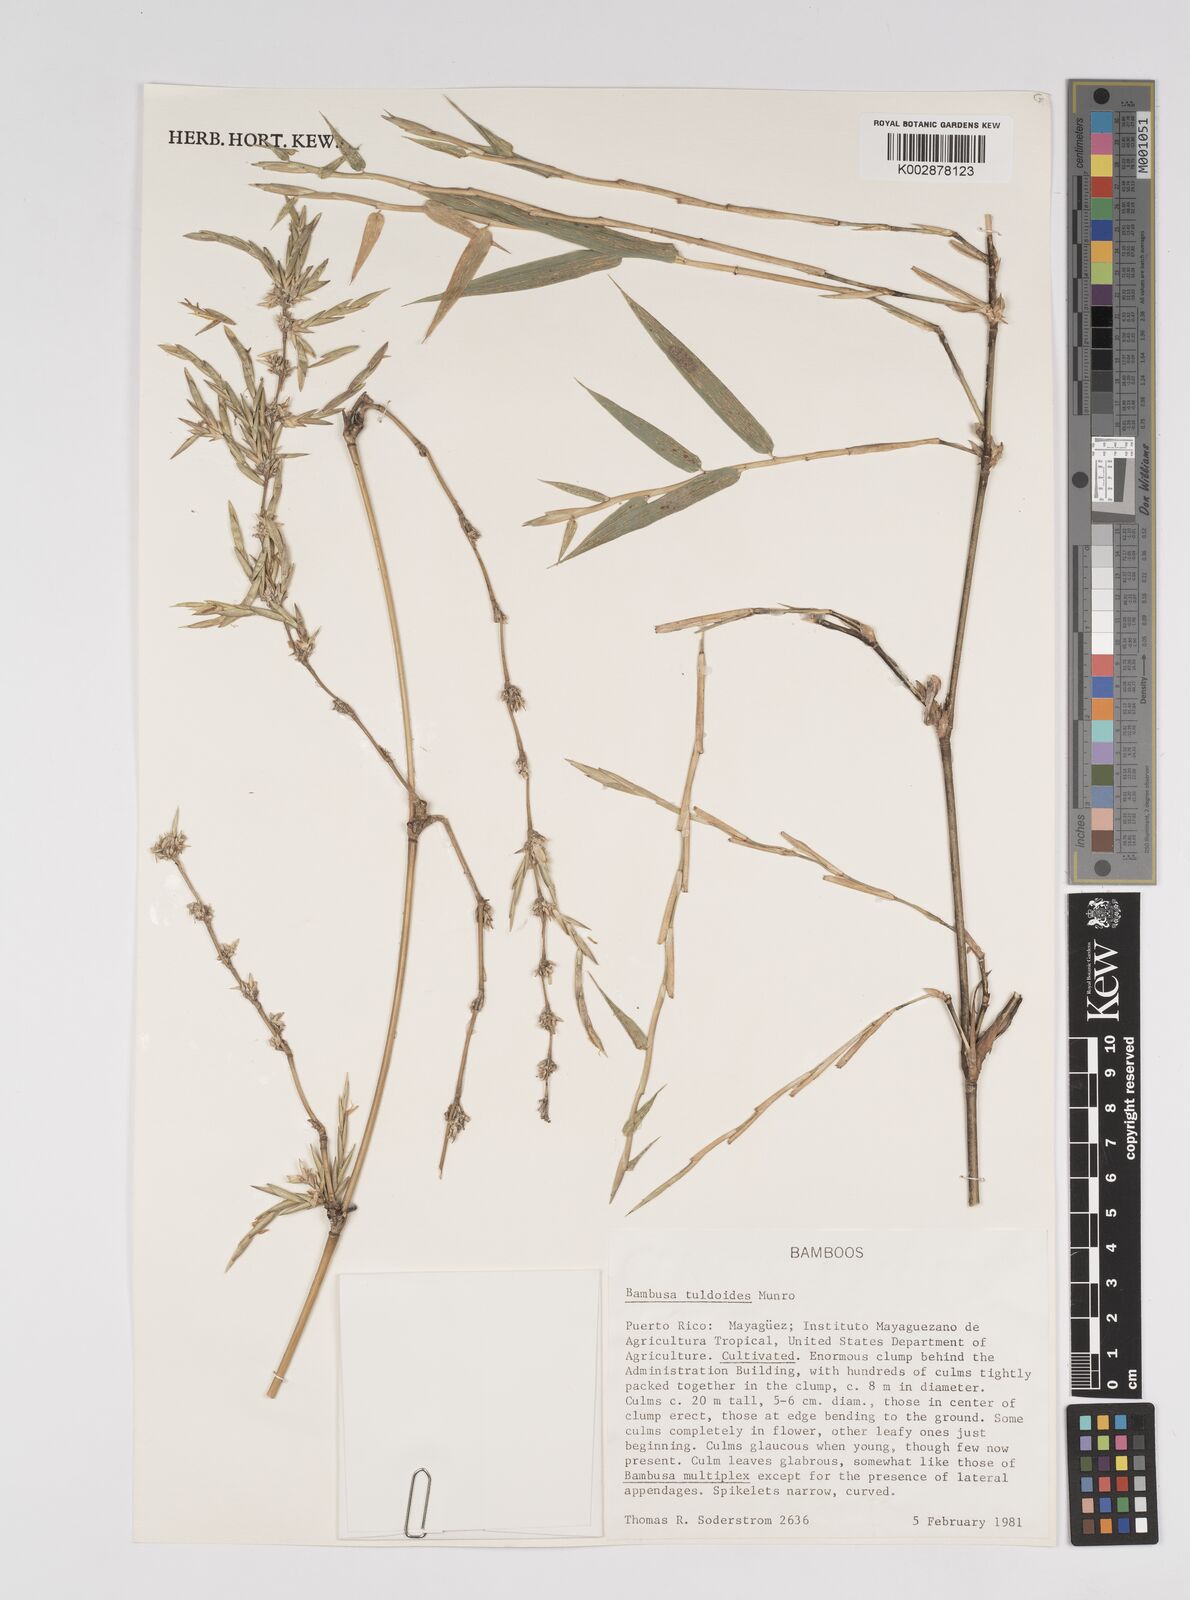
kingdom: Plantae
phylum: Tracheophyta
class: Liliopsida
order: Poales
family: Poaceae
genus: Bambusa
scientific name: Bambusa tuldoides
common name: Verdant bamboo
